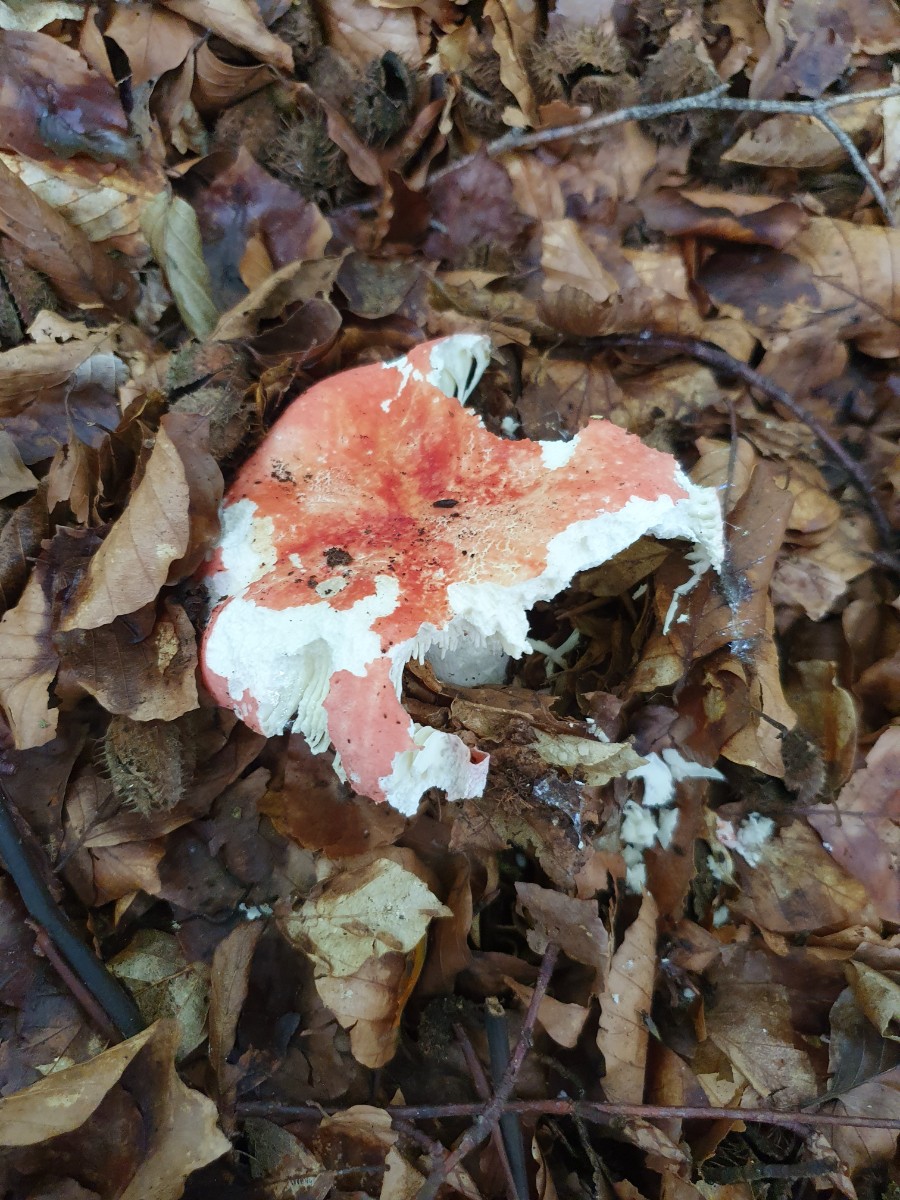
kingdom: Fungi
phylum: Basidiomycota
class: Agaricomycetes
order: Russulales
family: Russulaceae
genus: Russula
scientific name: Russula rosea
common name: fastkødet skørhat
